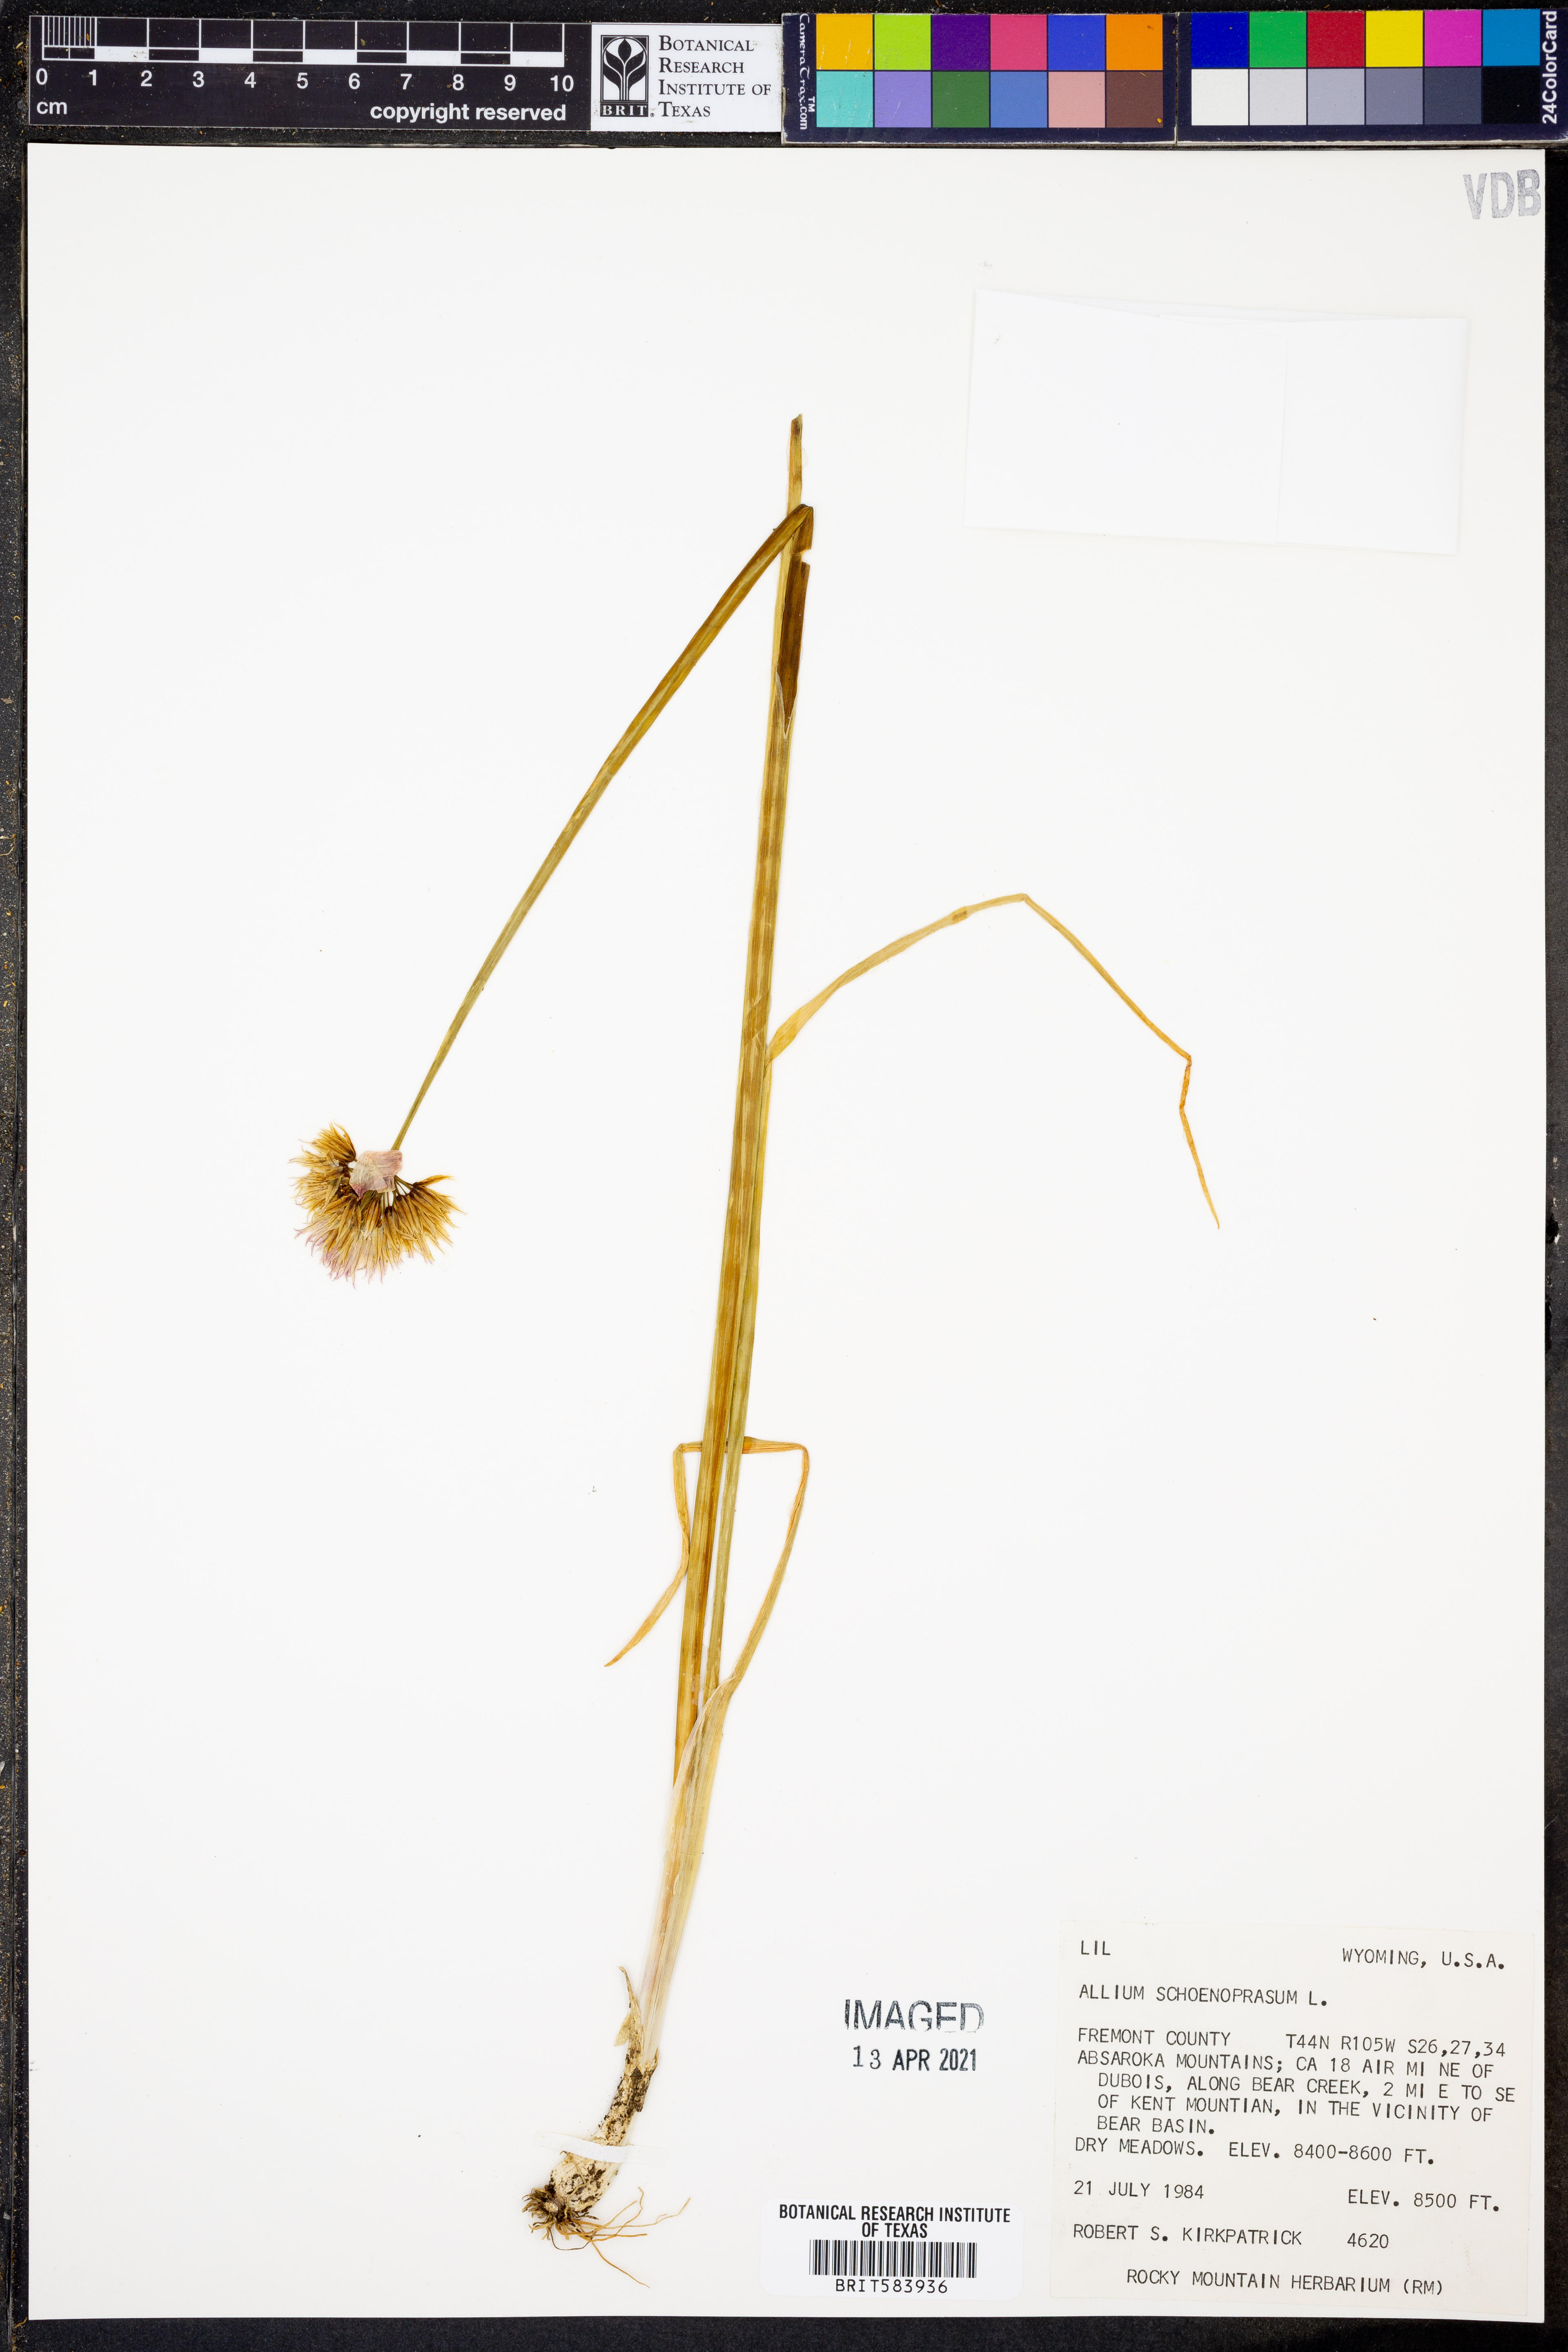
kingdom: Plantae
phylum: Tracheophyta
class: Liliopsida
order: Asparagales
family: Amaryllidaceae
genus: Allium
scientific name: Allium schoenoprasum
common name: Chives
